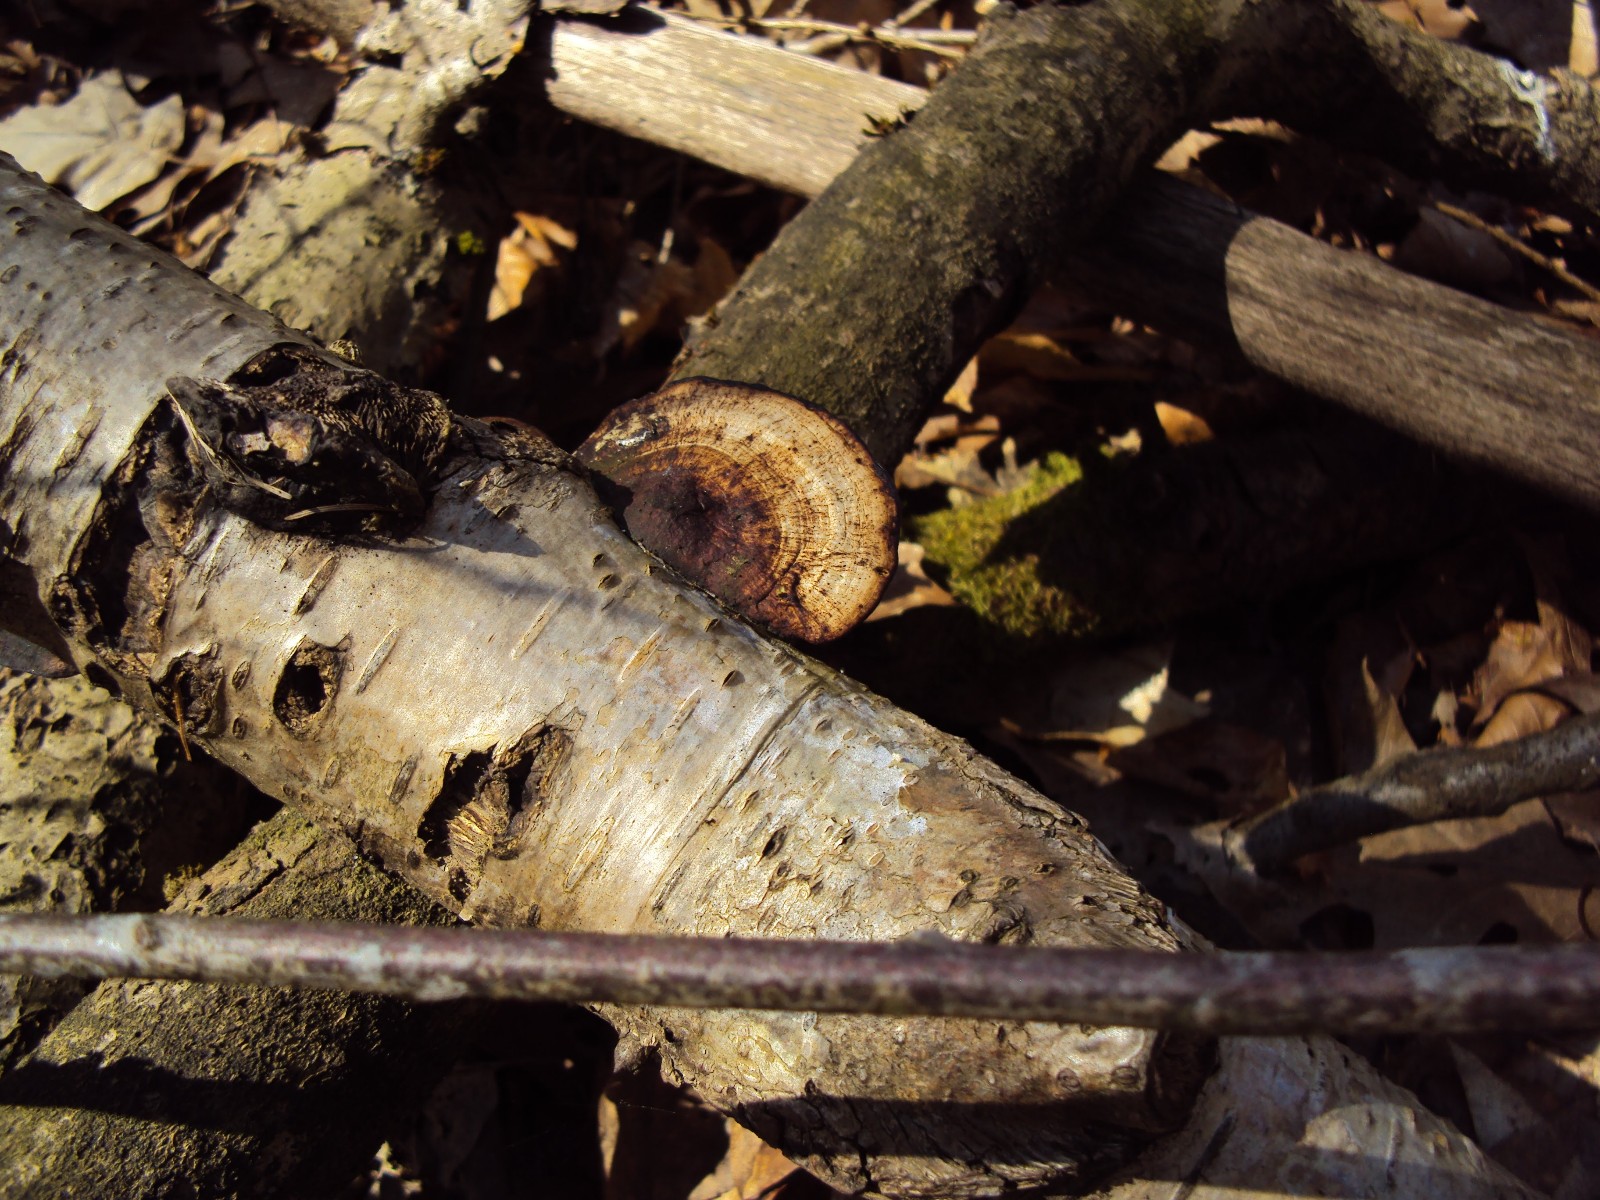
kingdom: Fungi
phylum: Basidiomycota
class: Agaricomycetes
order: Polyporales
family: Polyporaceae
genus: Daedaleopsis
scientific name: Daedaleopsis confragosa
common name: rødmende læderporesvamp
